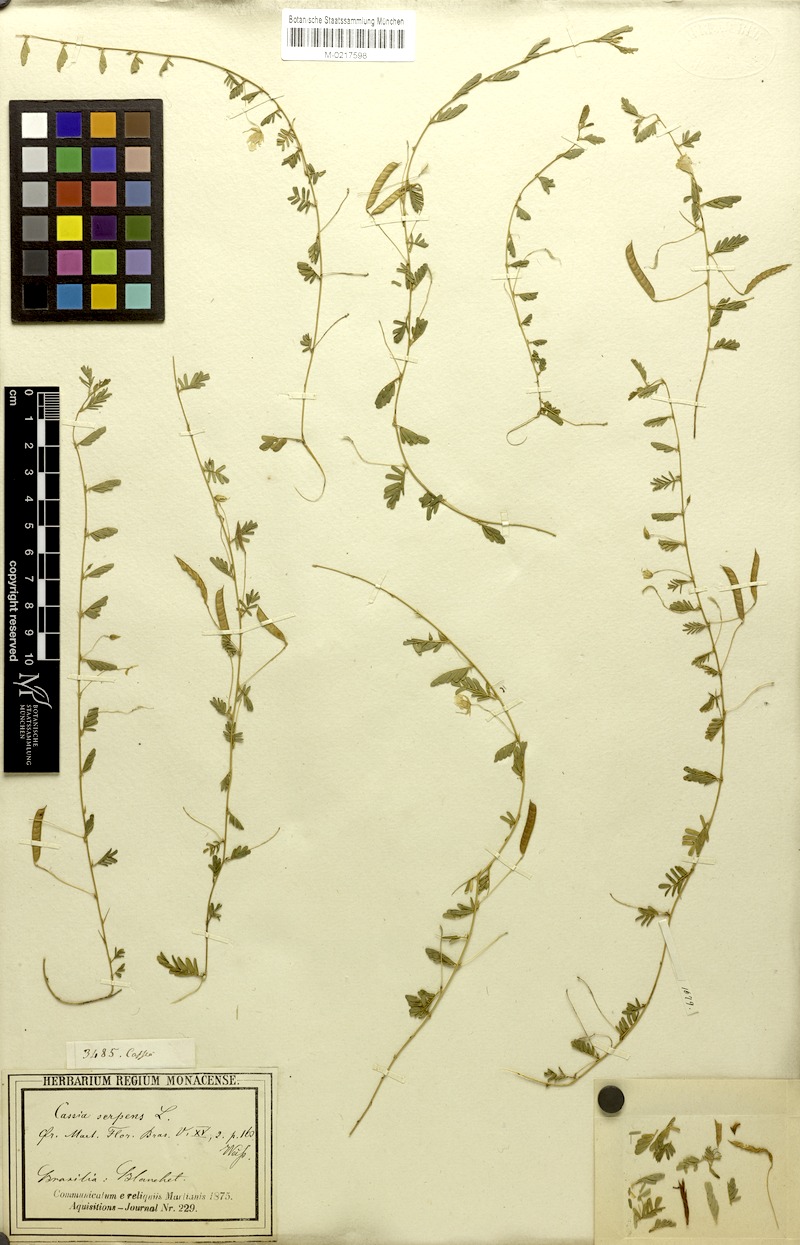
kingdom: Plantae
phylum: Tracheophyta
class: Magnoliopsida
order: Fabales
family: Fabaceae
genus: Chamaecrista
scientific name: Chamaecrista serpens
